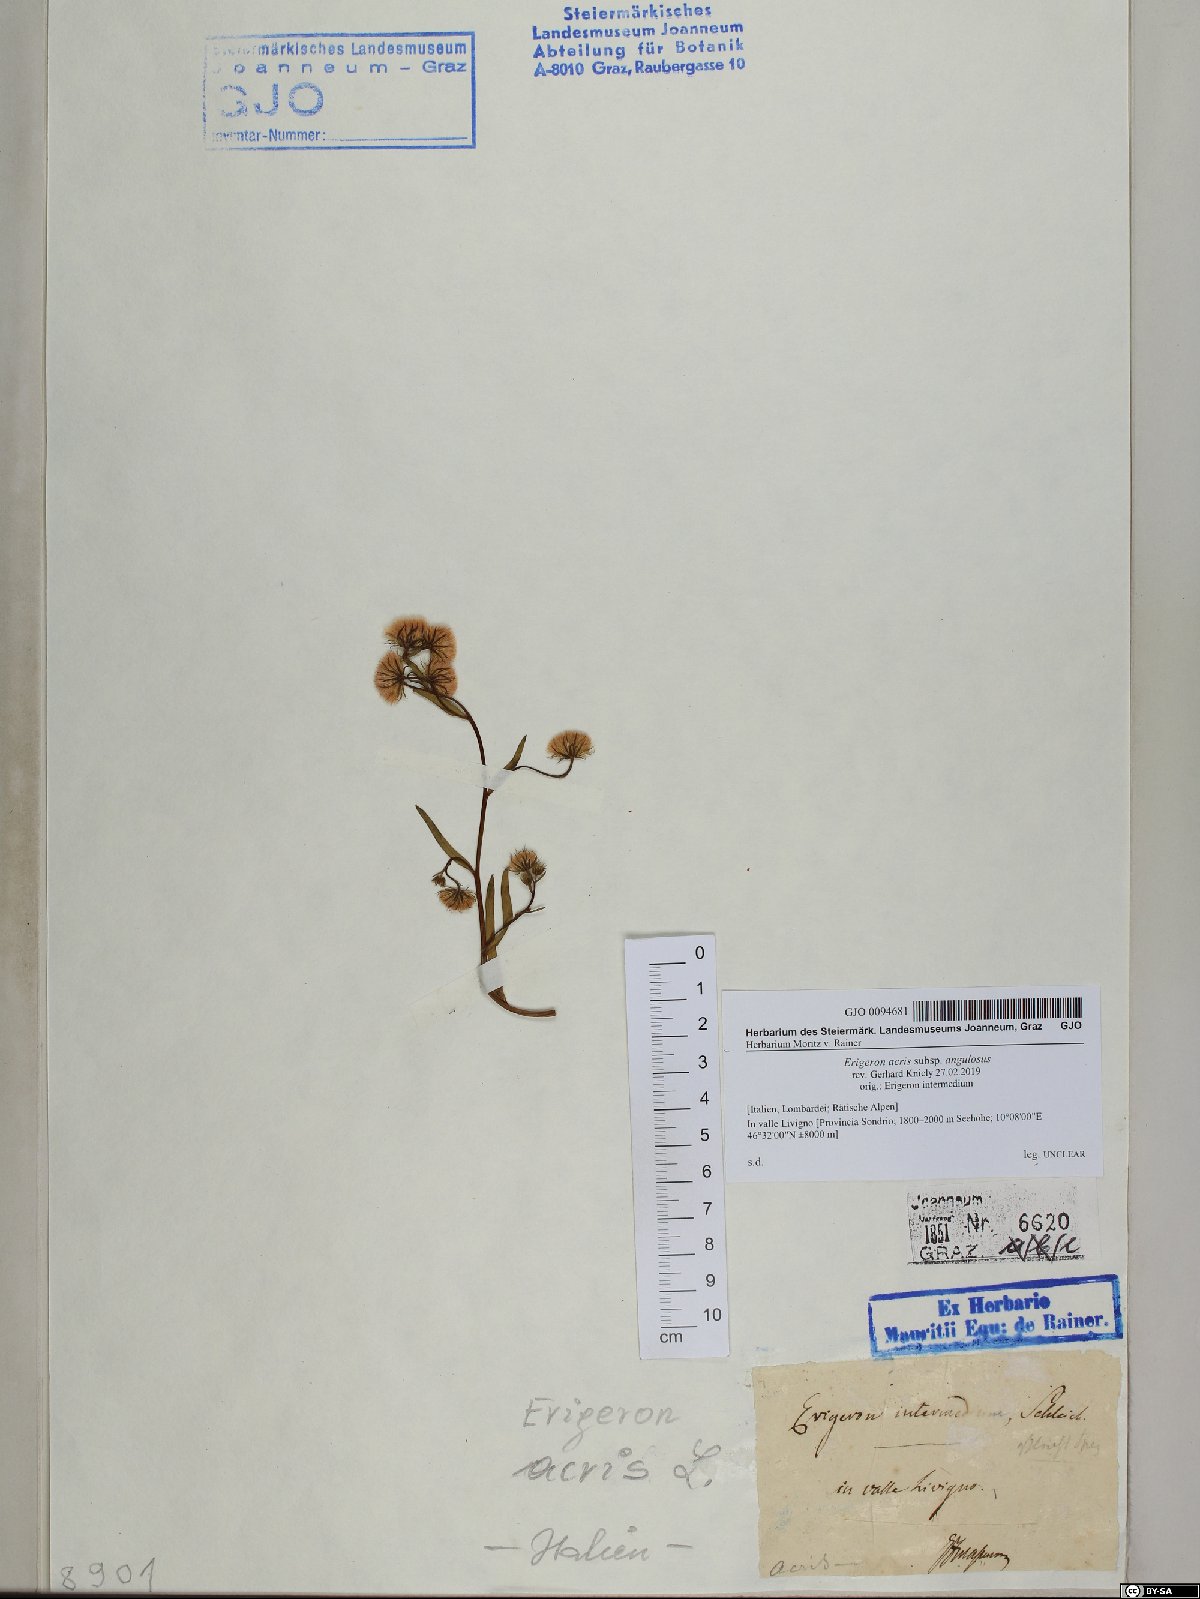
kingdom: Plantae
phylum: Tracheophyta
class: Magnoliopsida
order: Asterales
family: Asteraceae
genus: Erigeron
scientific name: Erigeron angulosus
